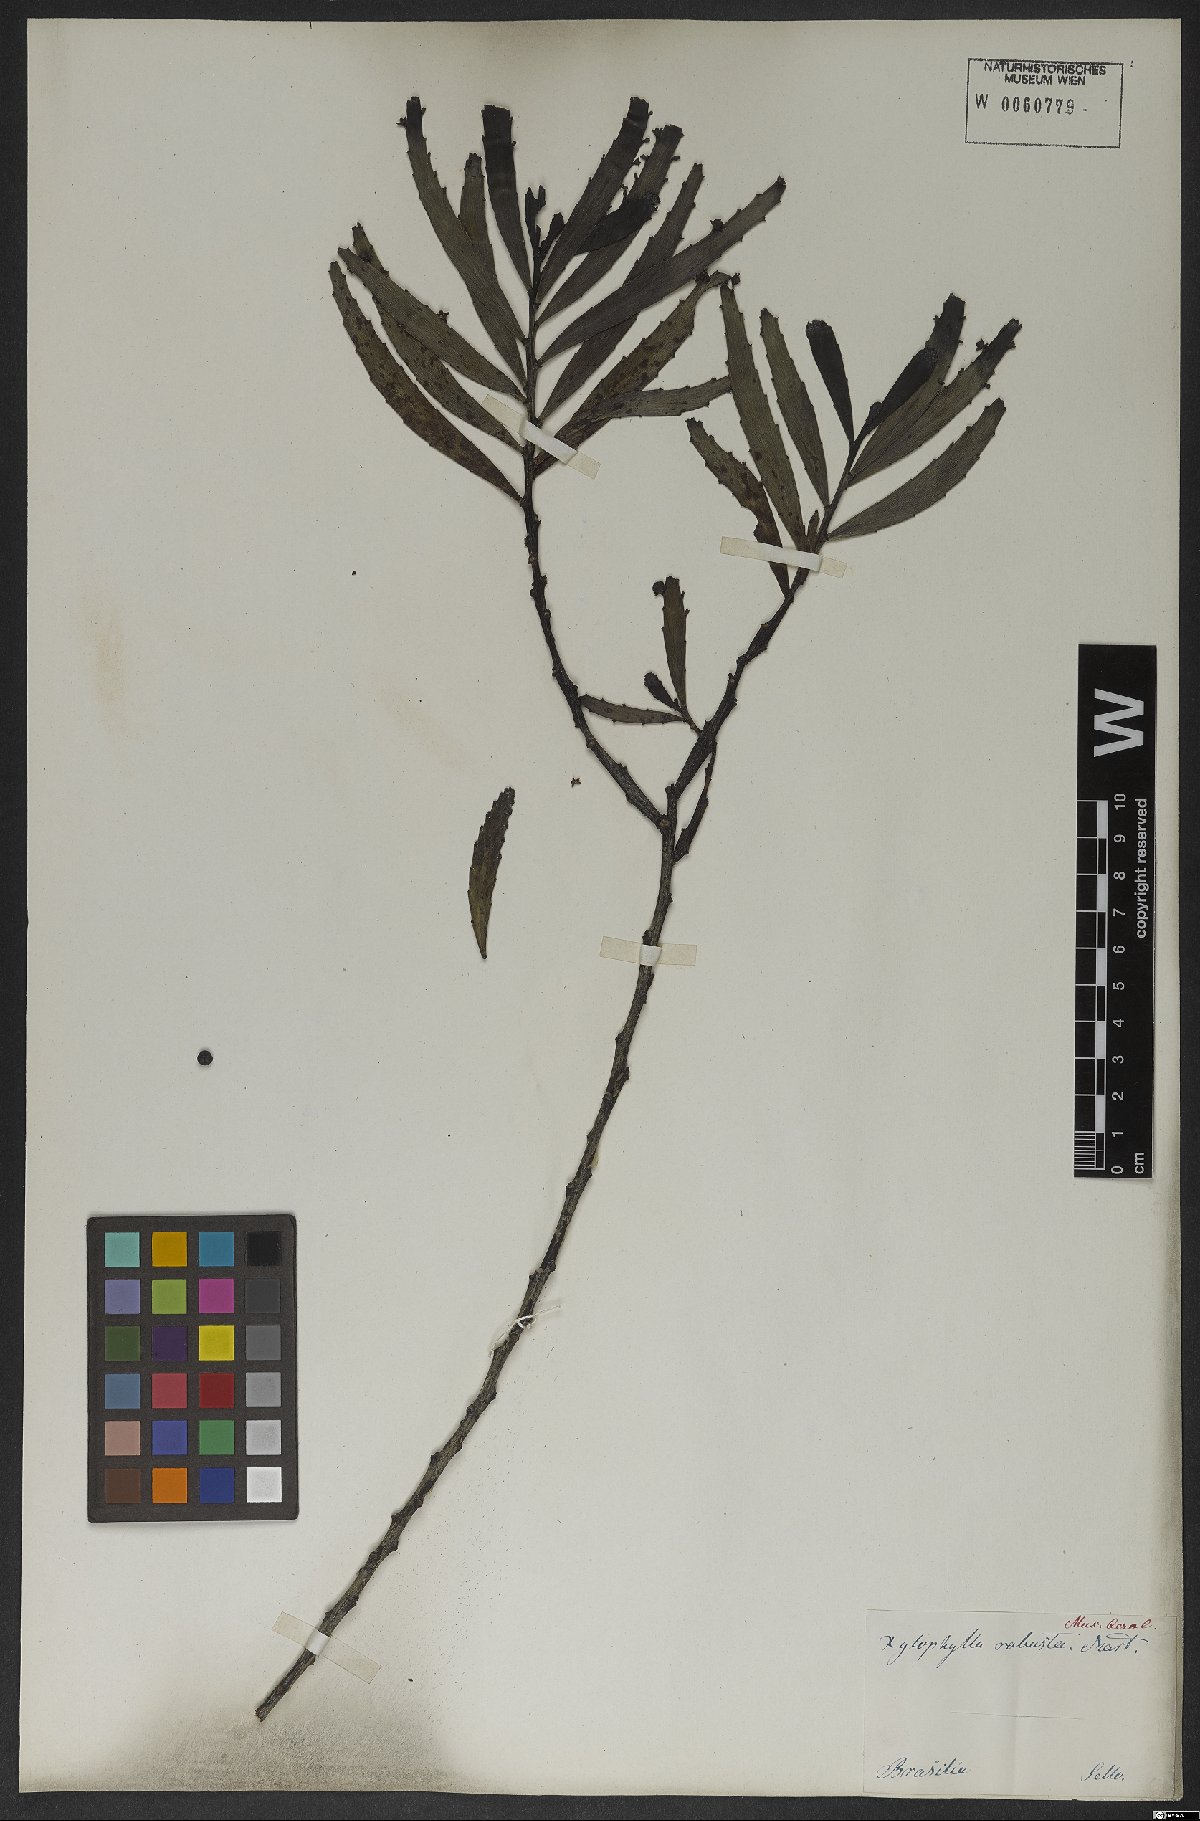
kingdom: Plantae
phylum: Tracheophyta
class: Magnoliopsida
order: Malpighiales
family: Phyllanthaceae
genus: Phyllanthus
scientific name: Phyllanthus robustus
